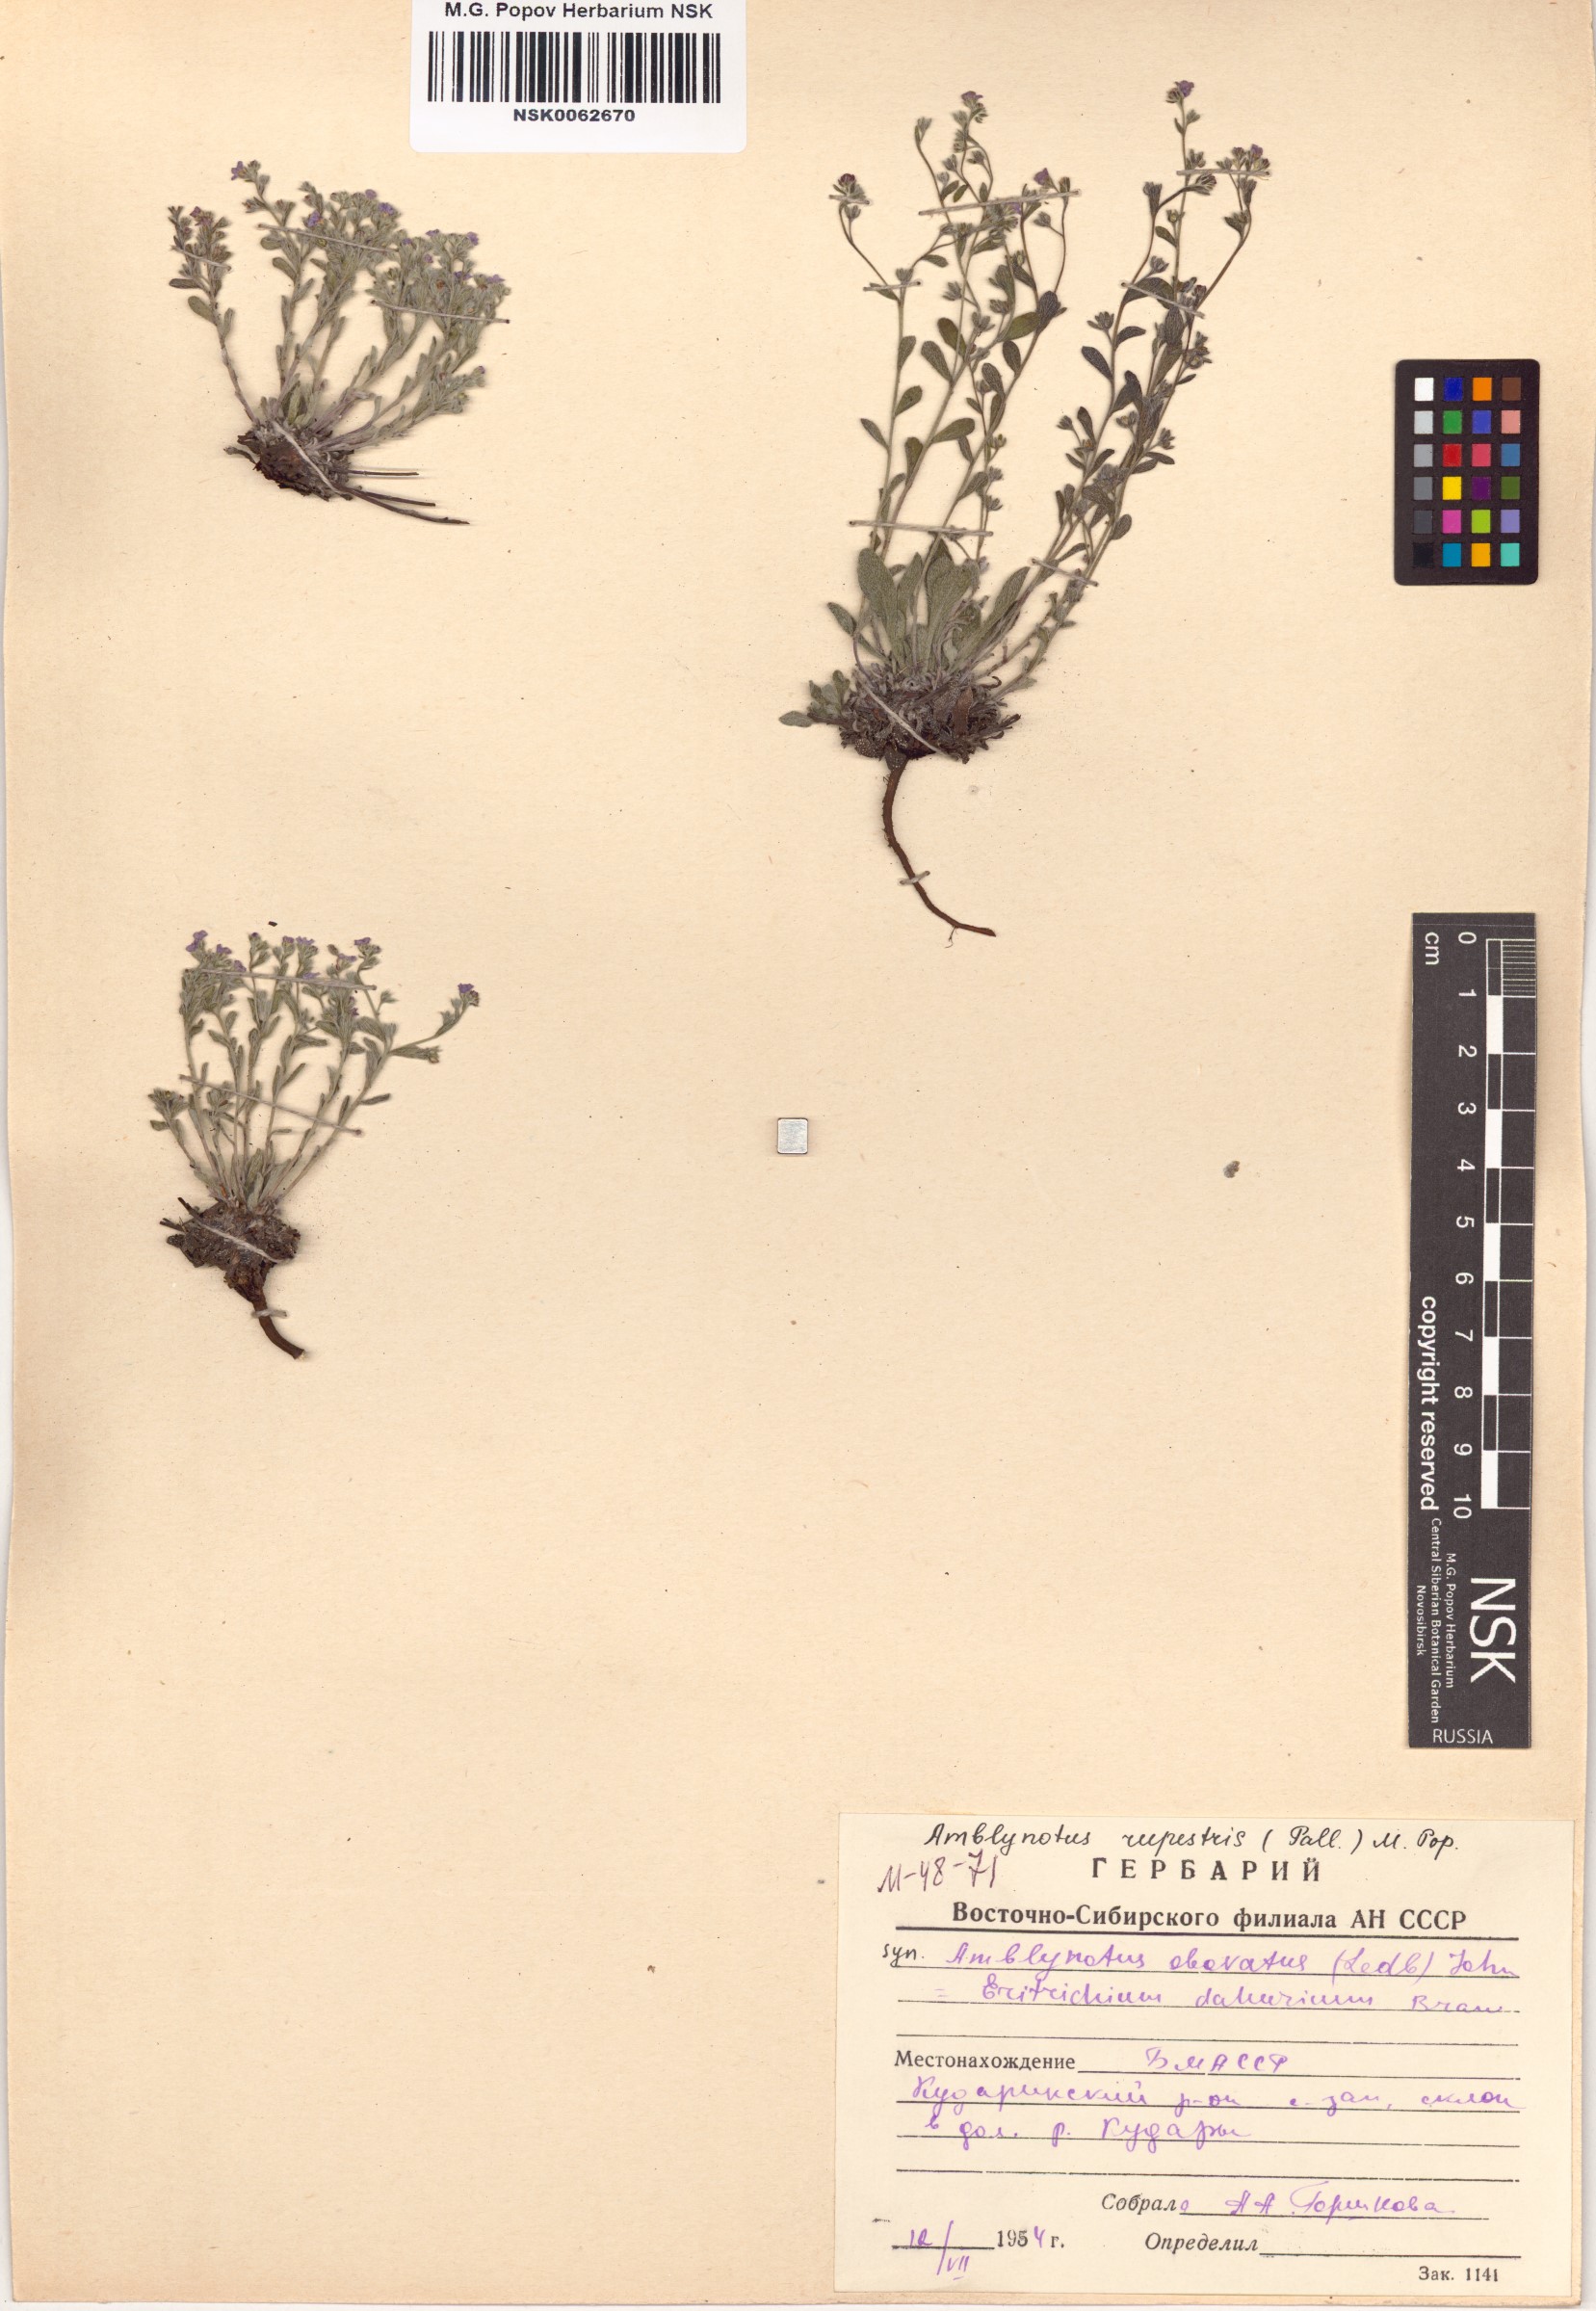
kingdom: Plantae
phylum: Tracheophyta
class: Magnoliopsida
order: Boraginales
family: Boraginaceae
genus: Eritrichium
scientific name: Eritrichium rupestre
